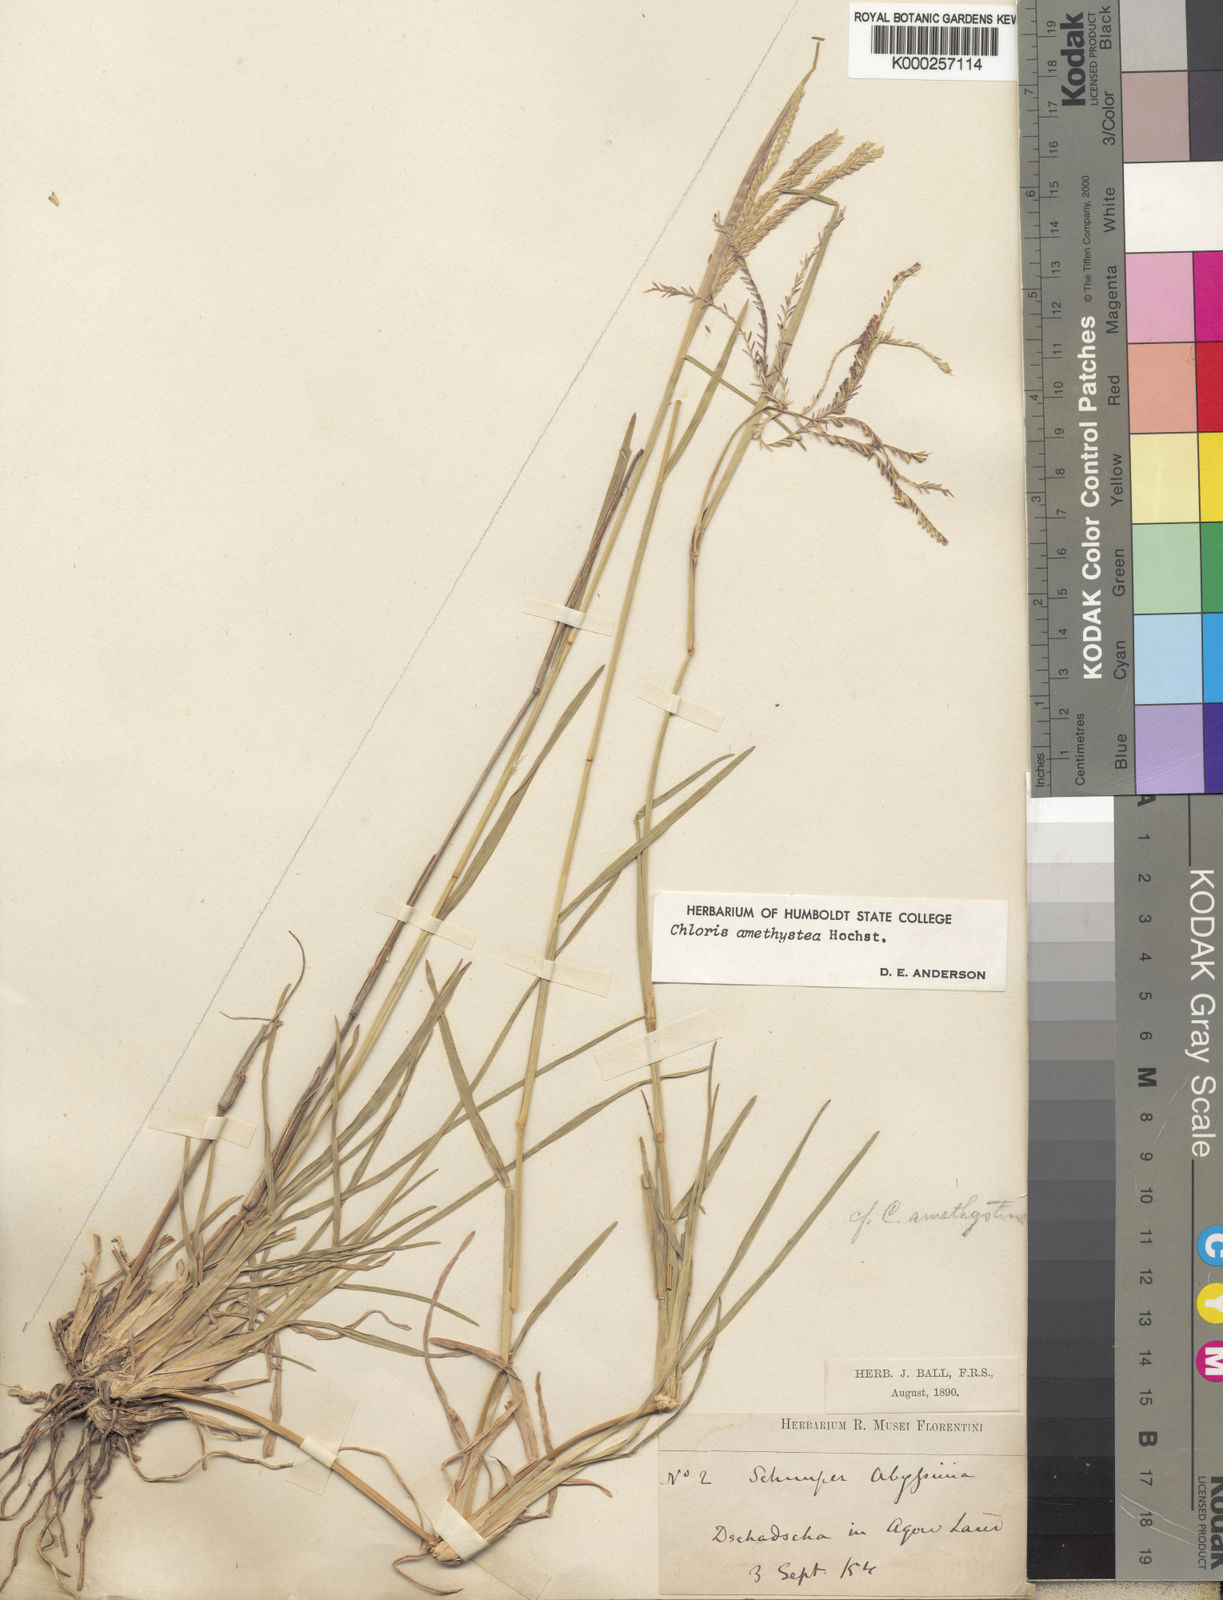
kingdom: Plantae
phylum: Tracheophyta
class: Liliopsida
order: Poales
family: Poaceae
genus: Chloris
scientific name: Chloris amethystea
